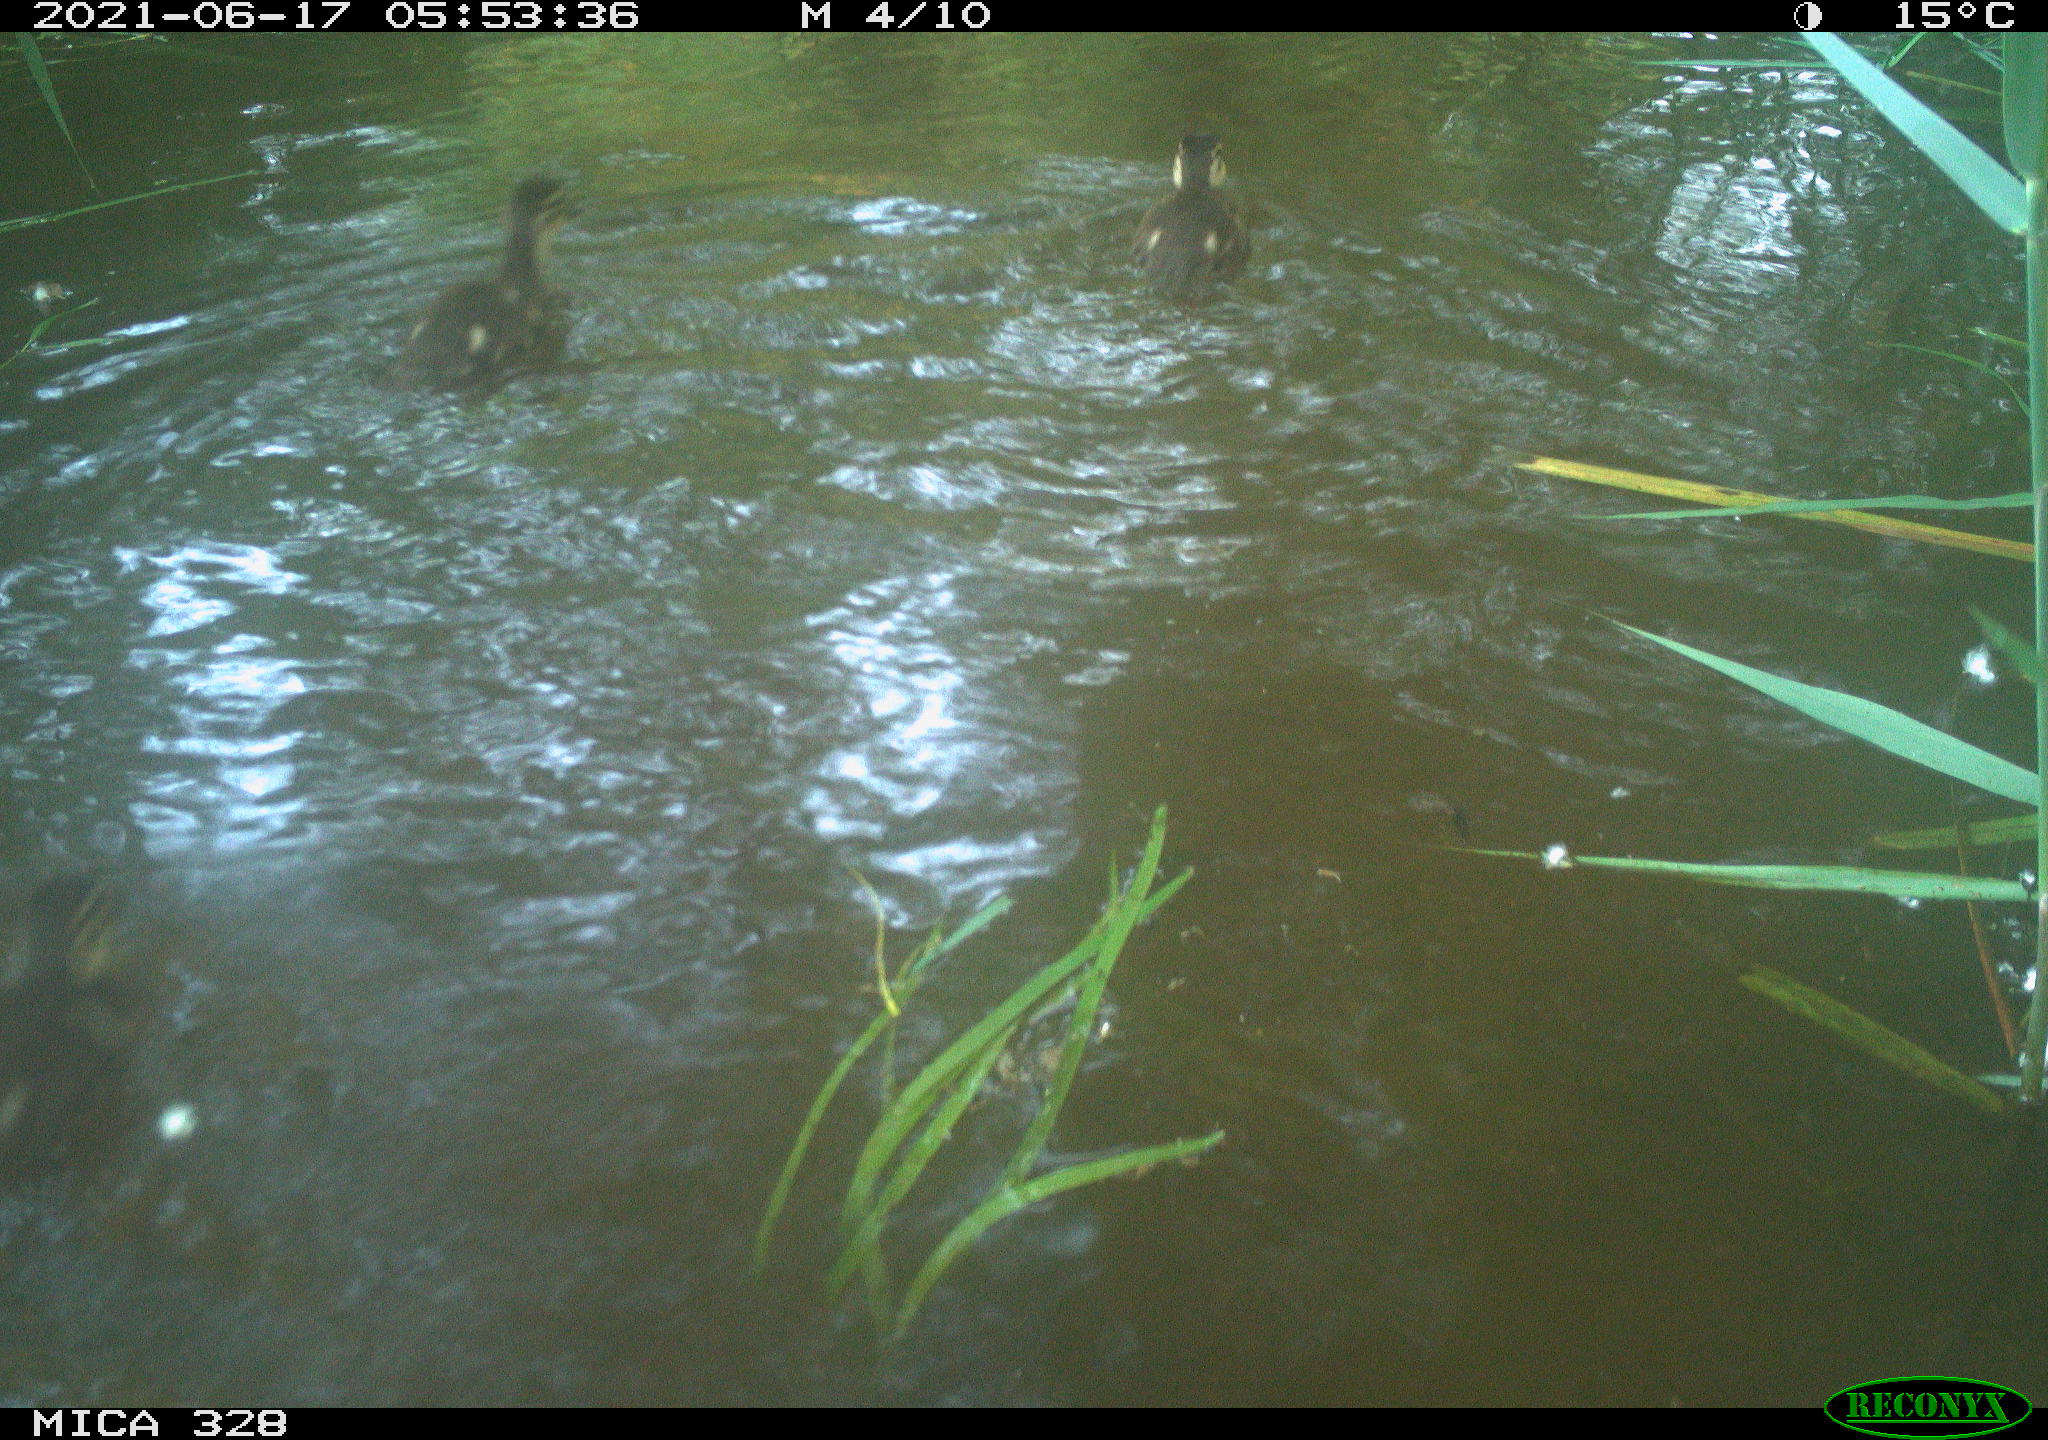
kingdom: Animalia
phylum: Chordata
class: Aves
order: Anseriformes
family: Anatidae
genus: Aix
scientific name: Aix galericulata
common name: Mandarin duck
